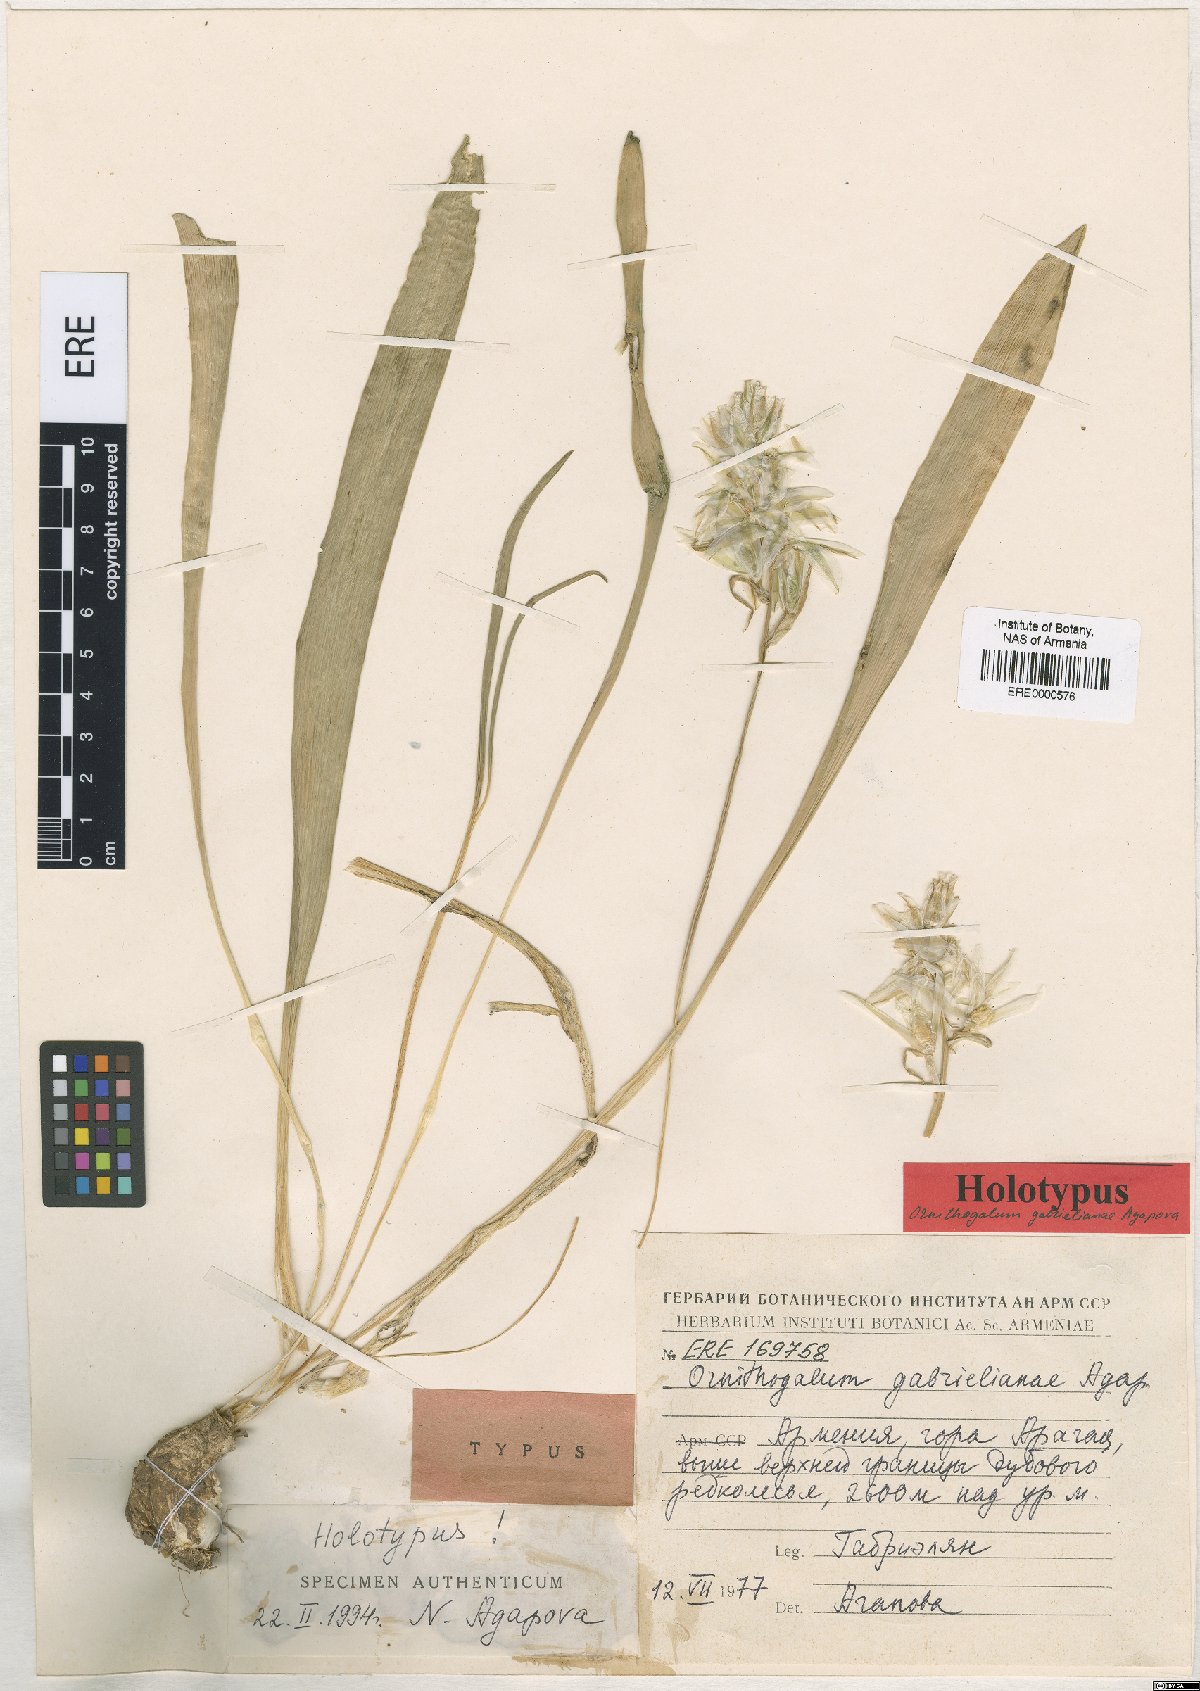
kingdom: Plantae
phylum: Tracheophyta
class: Liliopsida
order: Asparagales
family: Asparagaceae
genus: Ornithogalum
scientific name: Ornithogalum gabrielianiae
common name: Gabrielyan's starflowers
